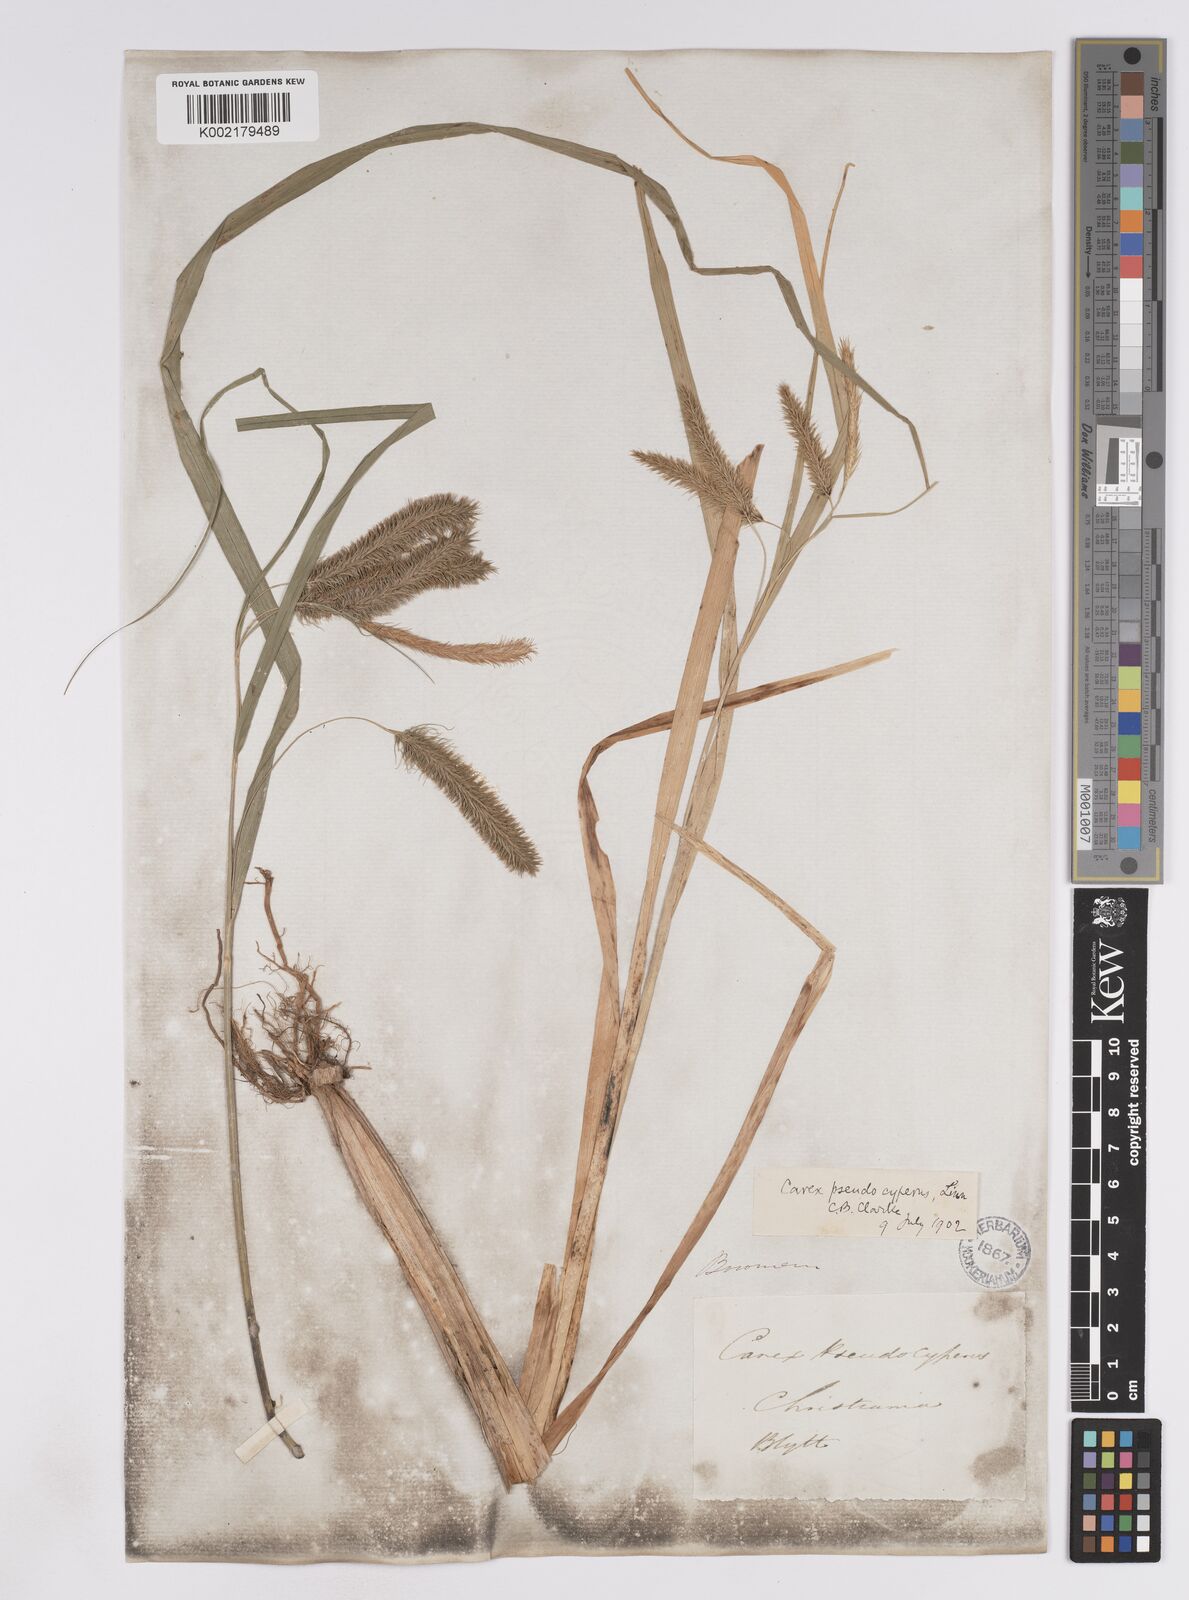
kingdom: Plantae
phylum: Tracheophyta
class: Liliopsida
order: Poales
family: Cyperaceae
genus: Carex
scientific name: Carex pseudocyperus
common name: Cyperus sedge
